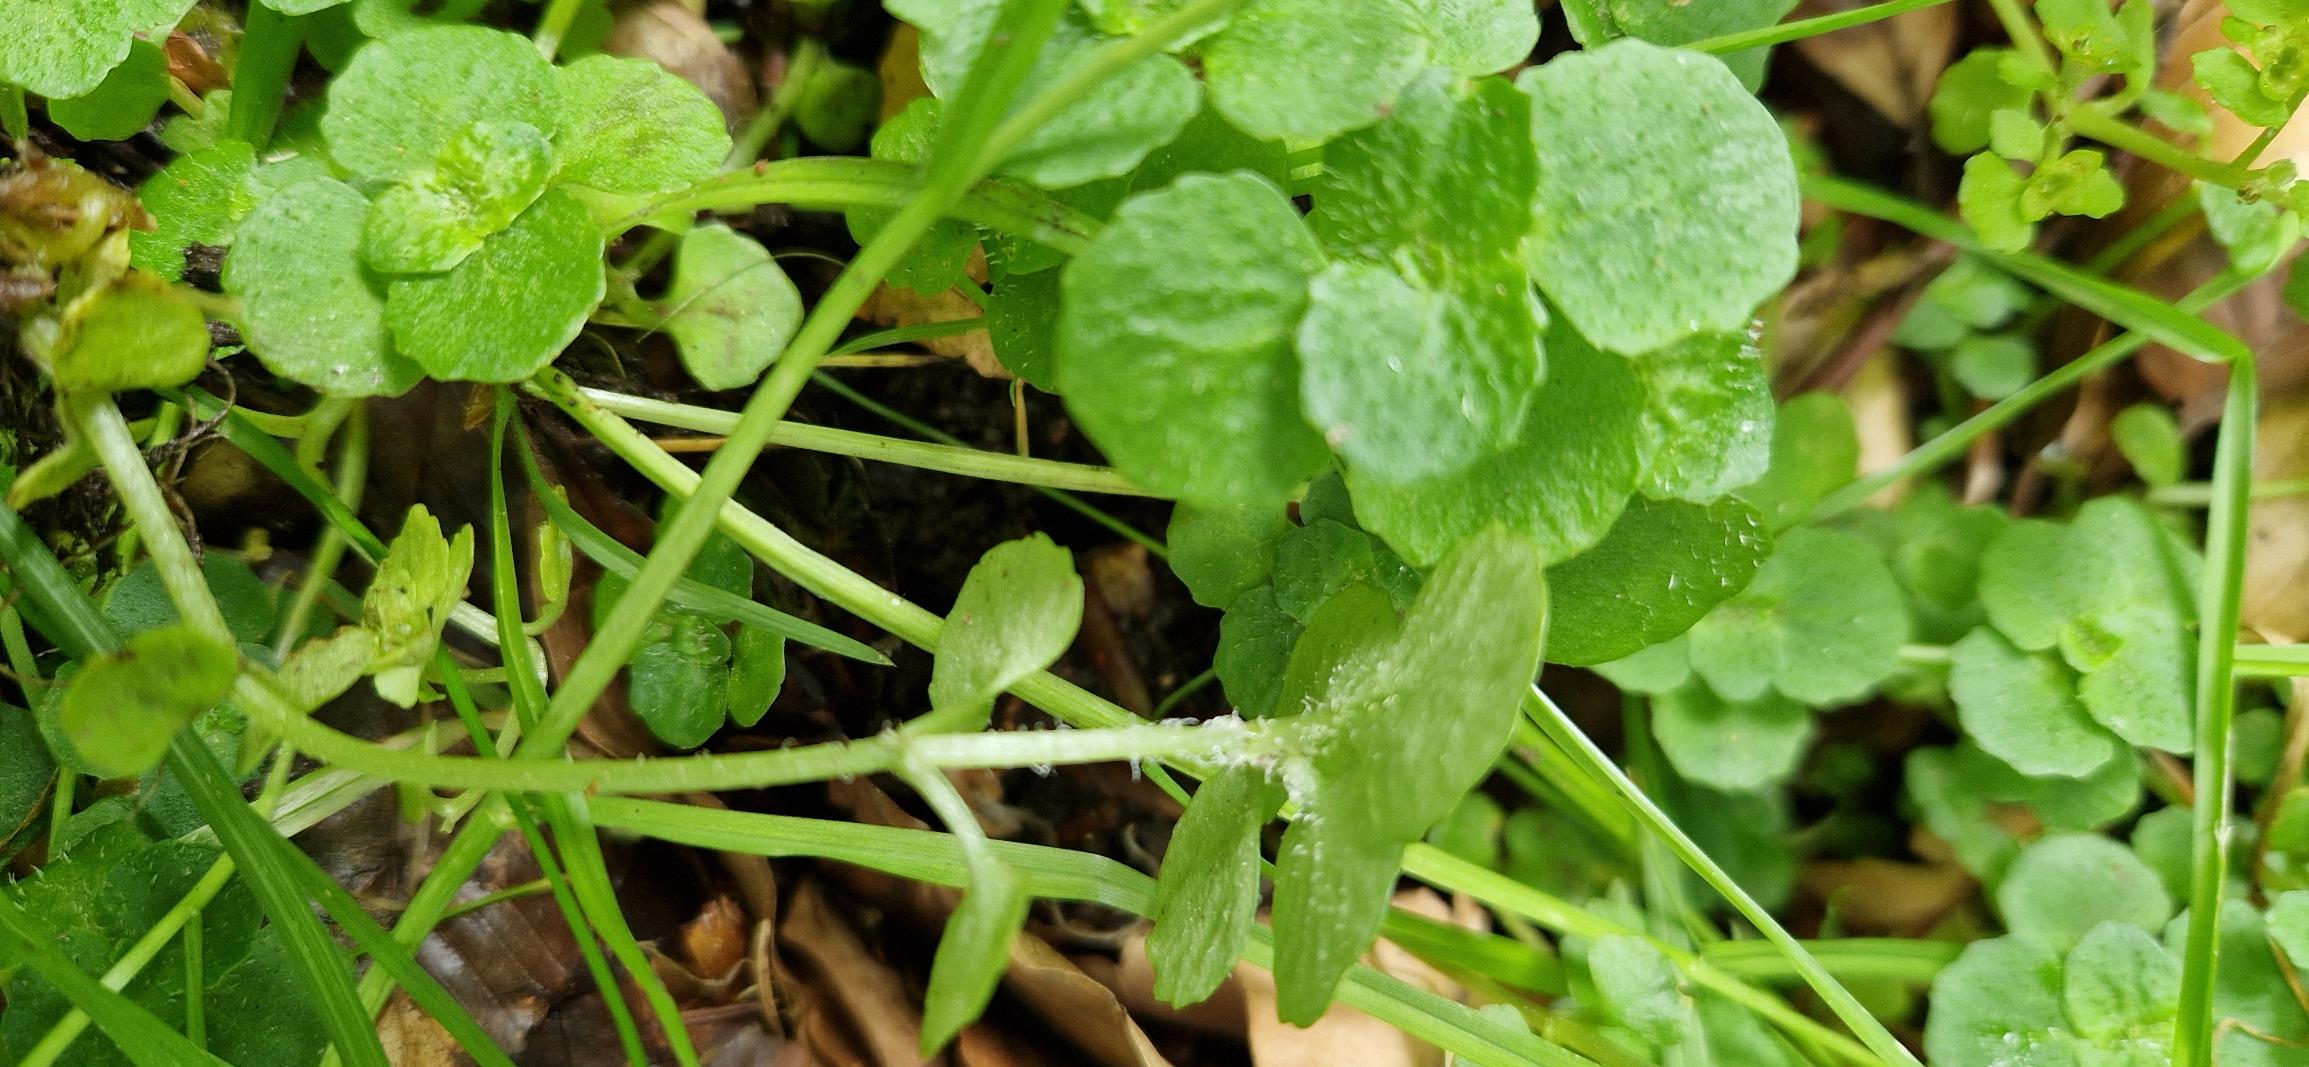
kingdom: Plantae
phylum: Tracheophyta
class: Magnoliopsida
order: Saxifragales
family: Saxifragaceae
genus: Chrysosplenium
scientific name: Chrysosplenium oppositifolium
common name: Småbladet milturt
